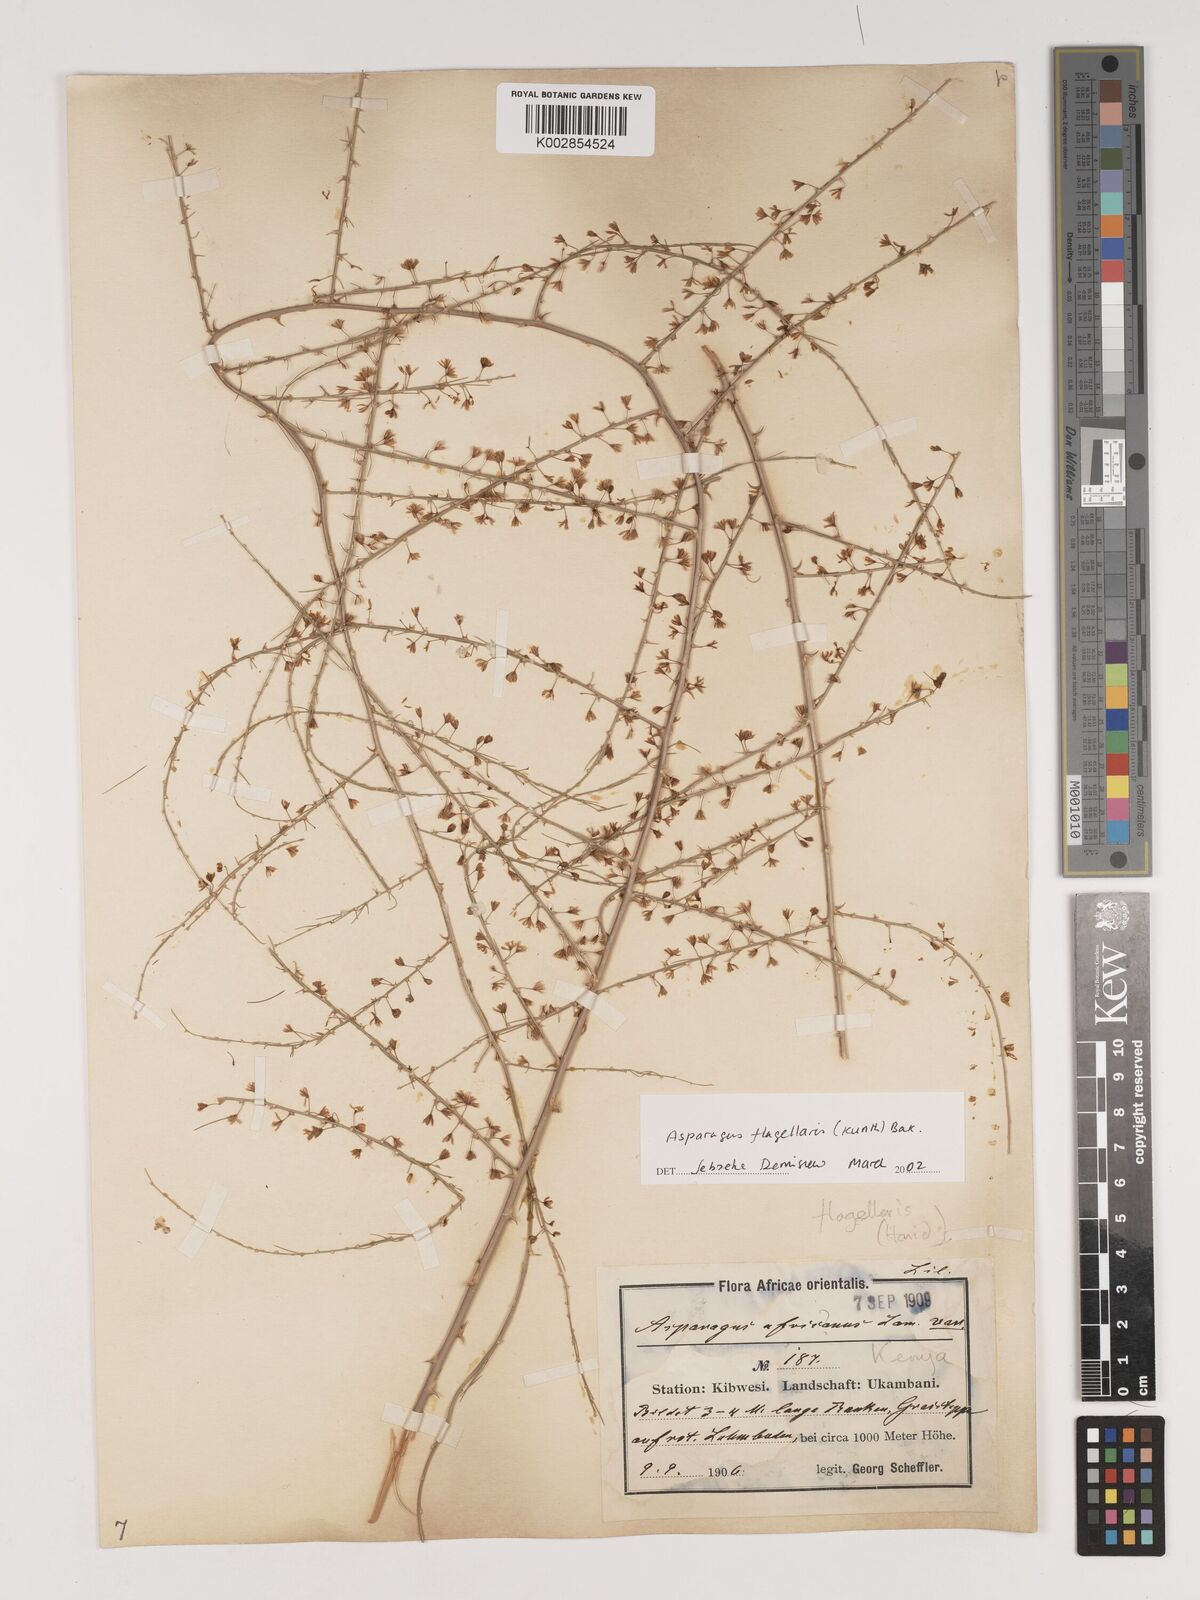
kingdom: Plantae
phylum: Tracheophyta
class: Liliopsida
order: Asparagales
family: Asparagaceae
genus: Asparagus
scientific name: Asparagus flagellaris
